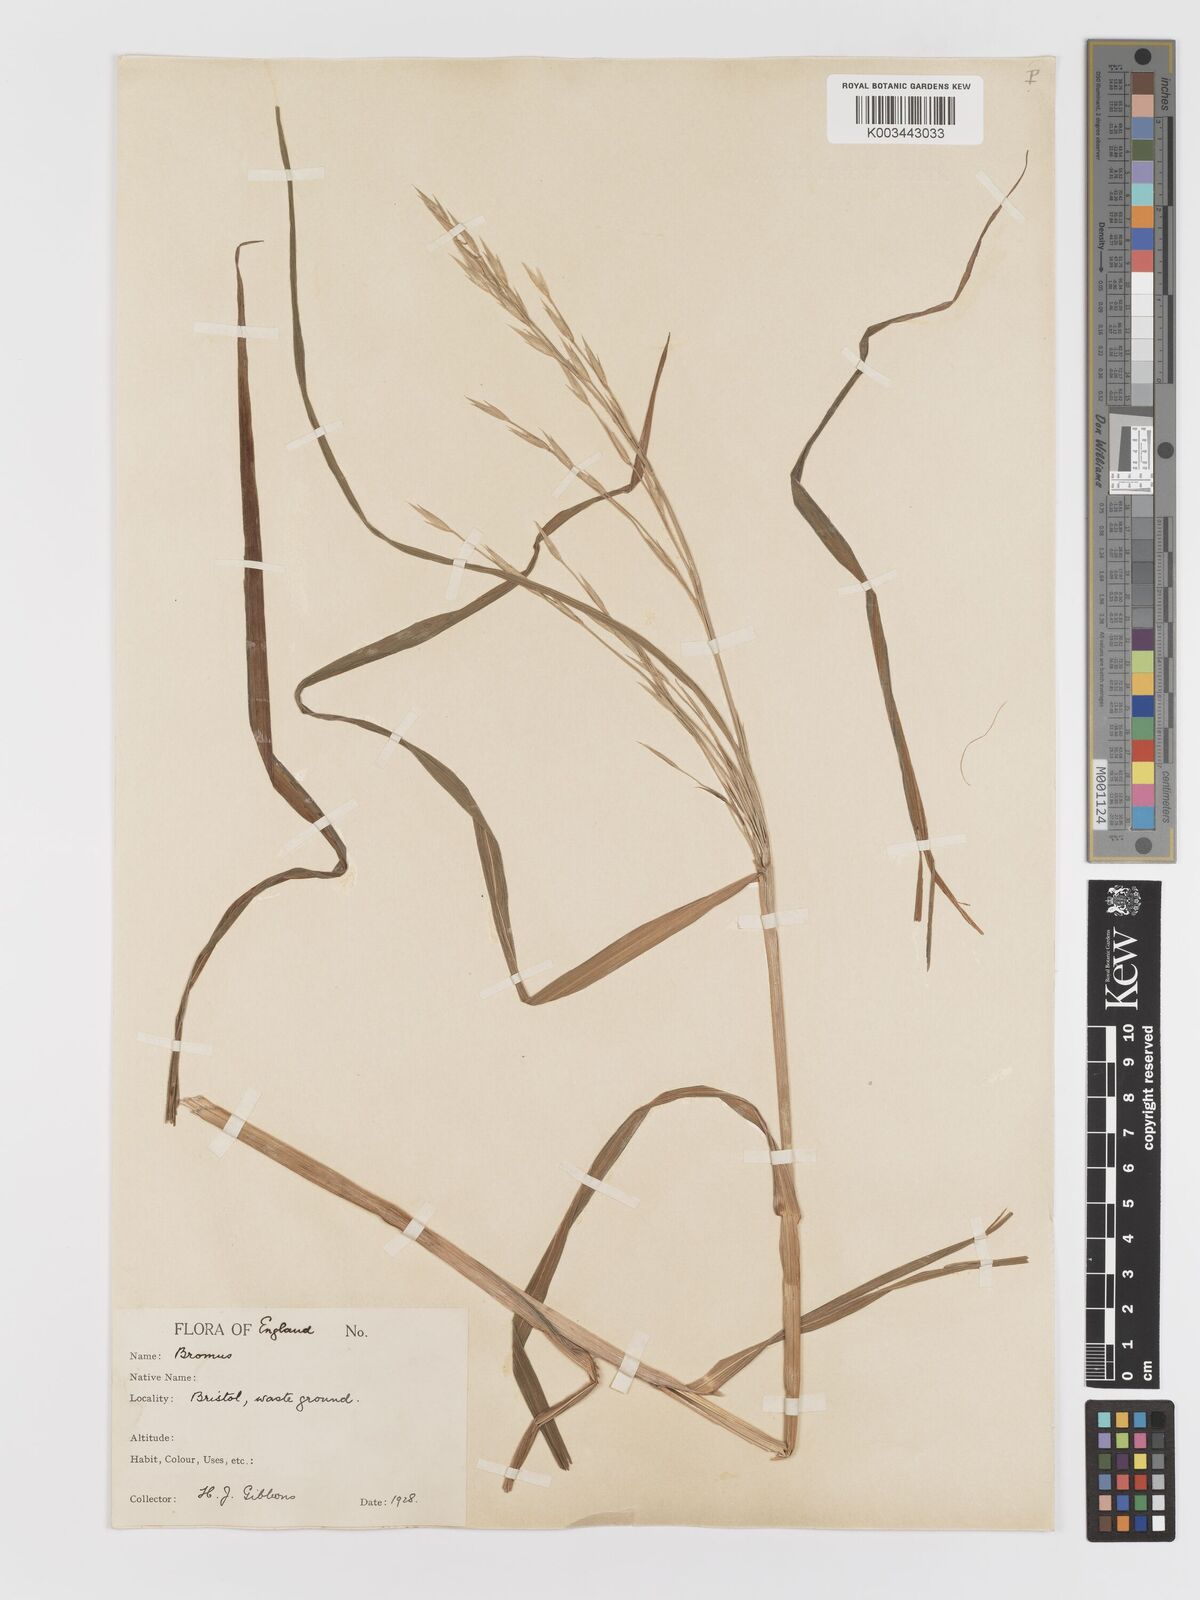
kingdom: Plantae
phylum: Tracheophyta
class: Liliopsida
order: Poales
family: Poaceae
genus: Bromus
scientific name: Bromus catharticus
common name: Rescuegrass
